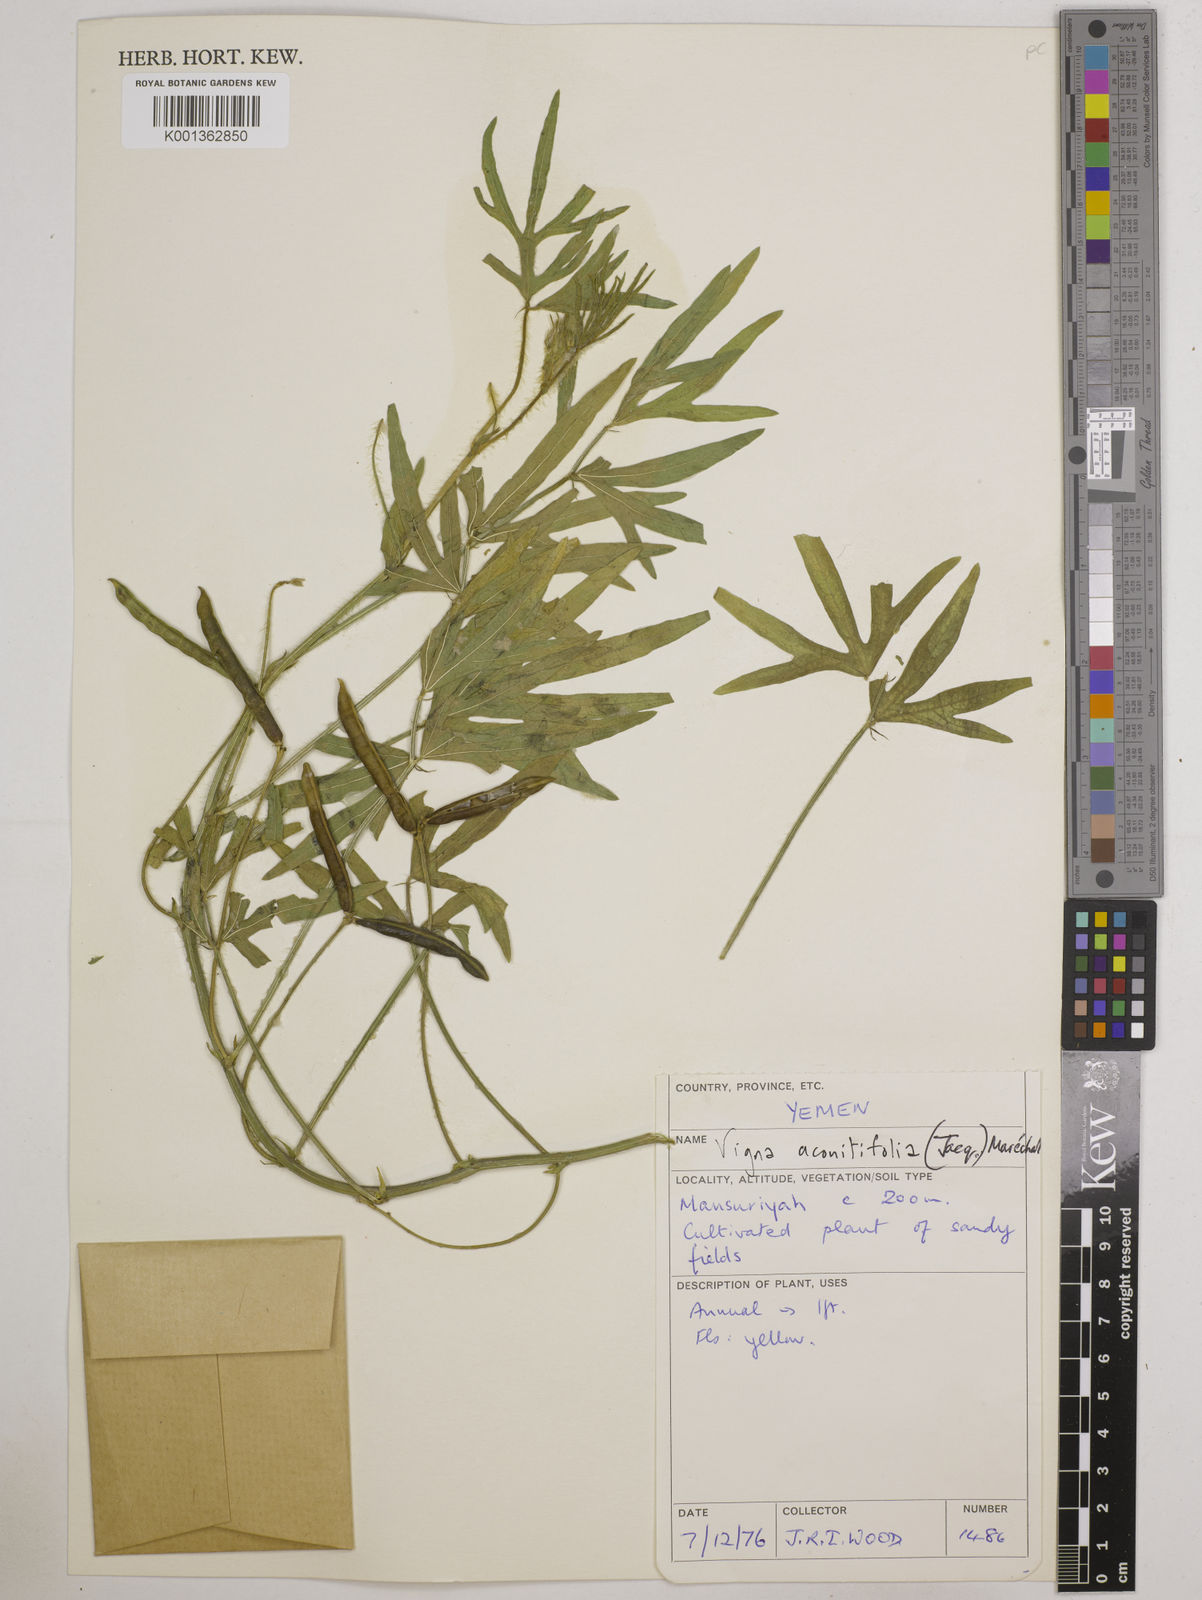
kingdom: Plantae
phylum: Tracheophyta
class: Magnoliopsida
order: Fabales
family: Fabaceae
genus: Vigna
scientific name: Vigna aconitifolia
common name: Dew bean
